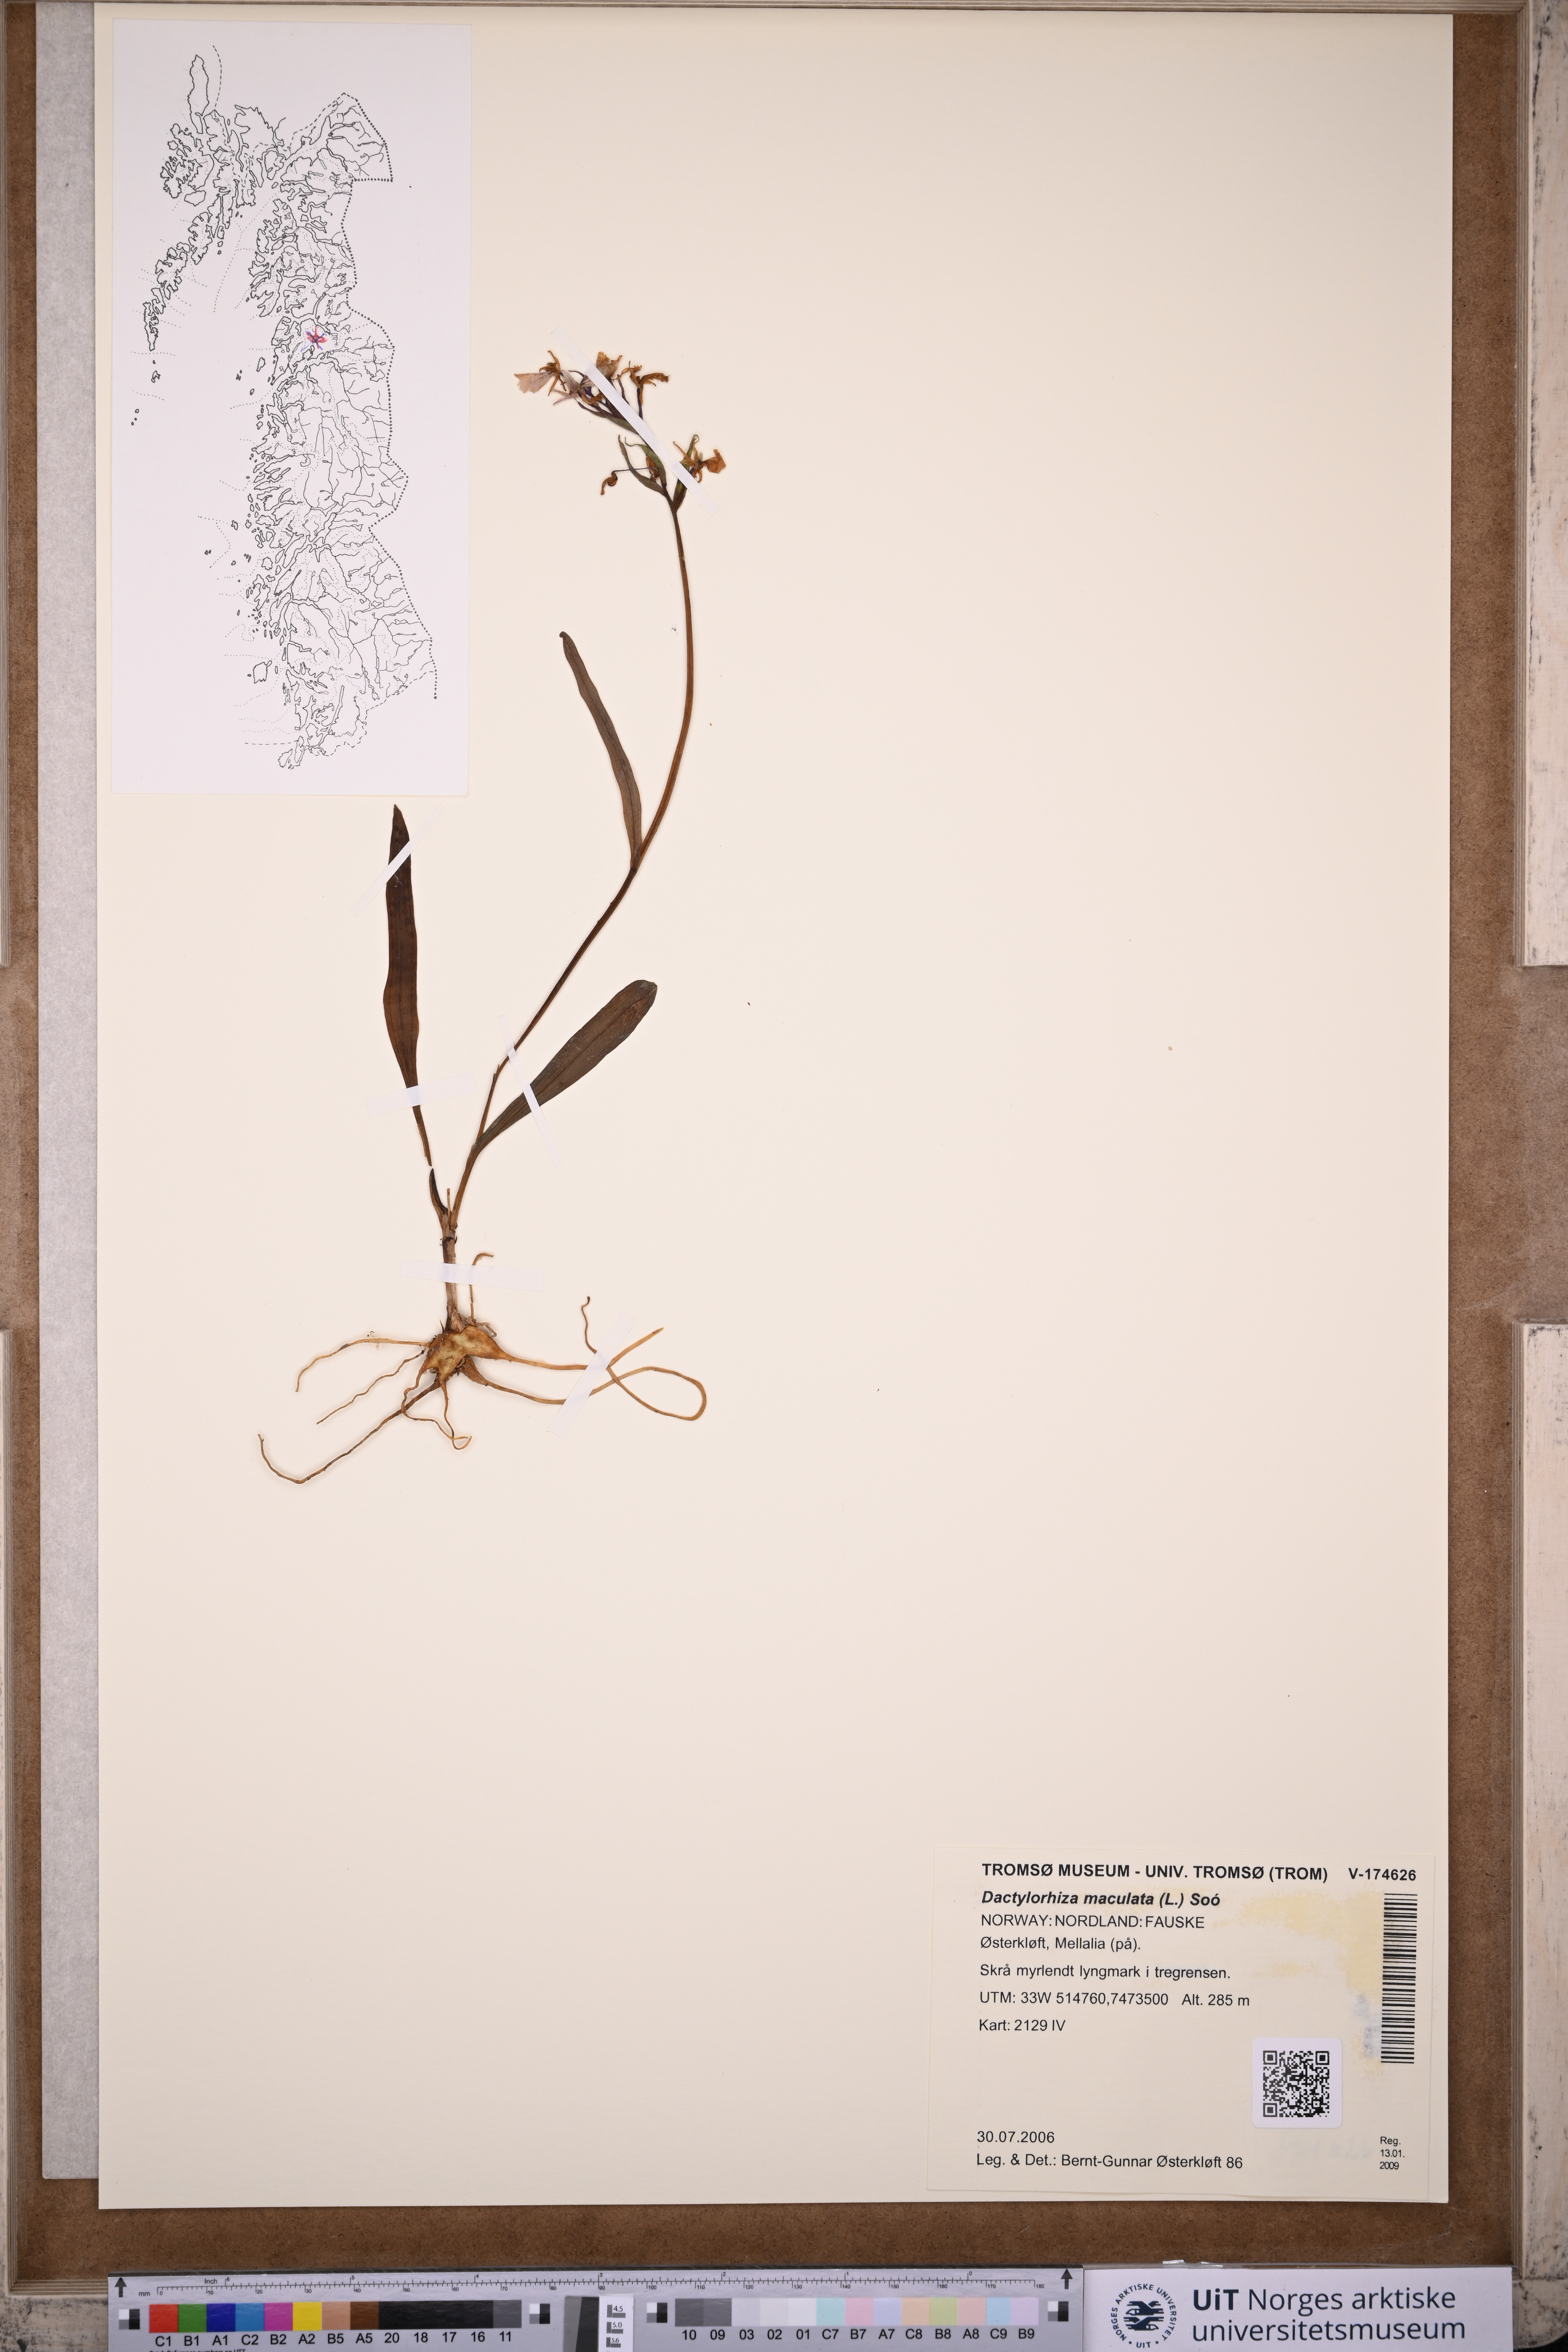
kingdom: Plantae
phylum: Tracheophyta
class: Liliopsida
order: Asparagales
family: Orchidaceae
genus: Dactylorhiza
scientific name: Dactylorhiza maculata
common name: Heath spotted-orchid
